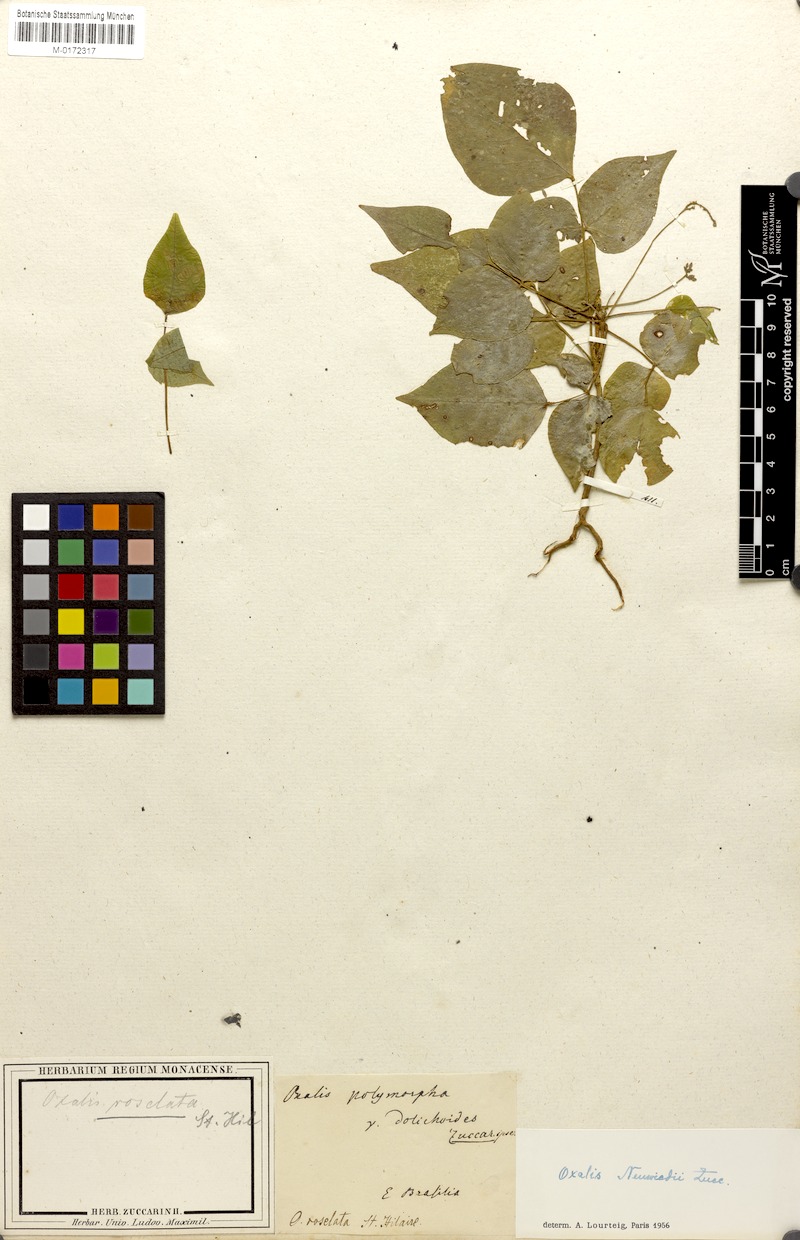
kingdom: Plantae
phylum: Tracheophyta
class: Magnoliopsida
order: Oxalidales
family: Oxalidaceae
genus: Oxalis
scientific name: Oxalis neuwiedii
